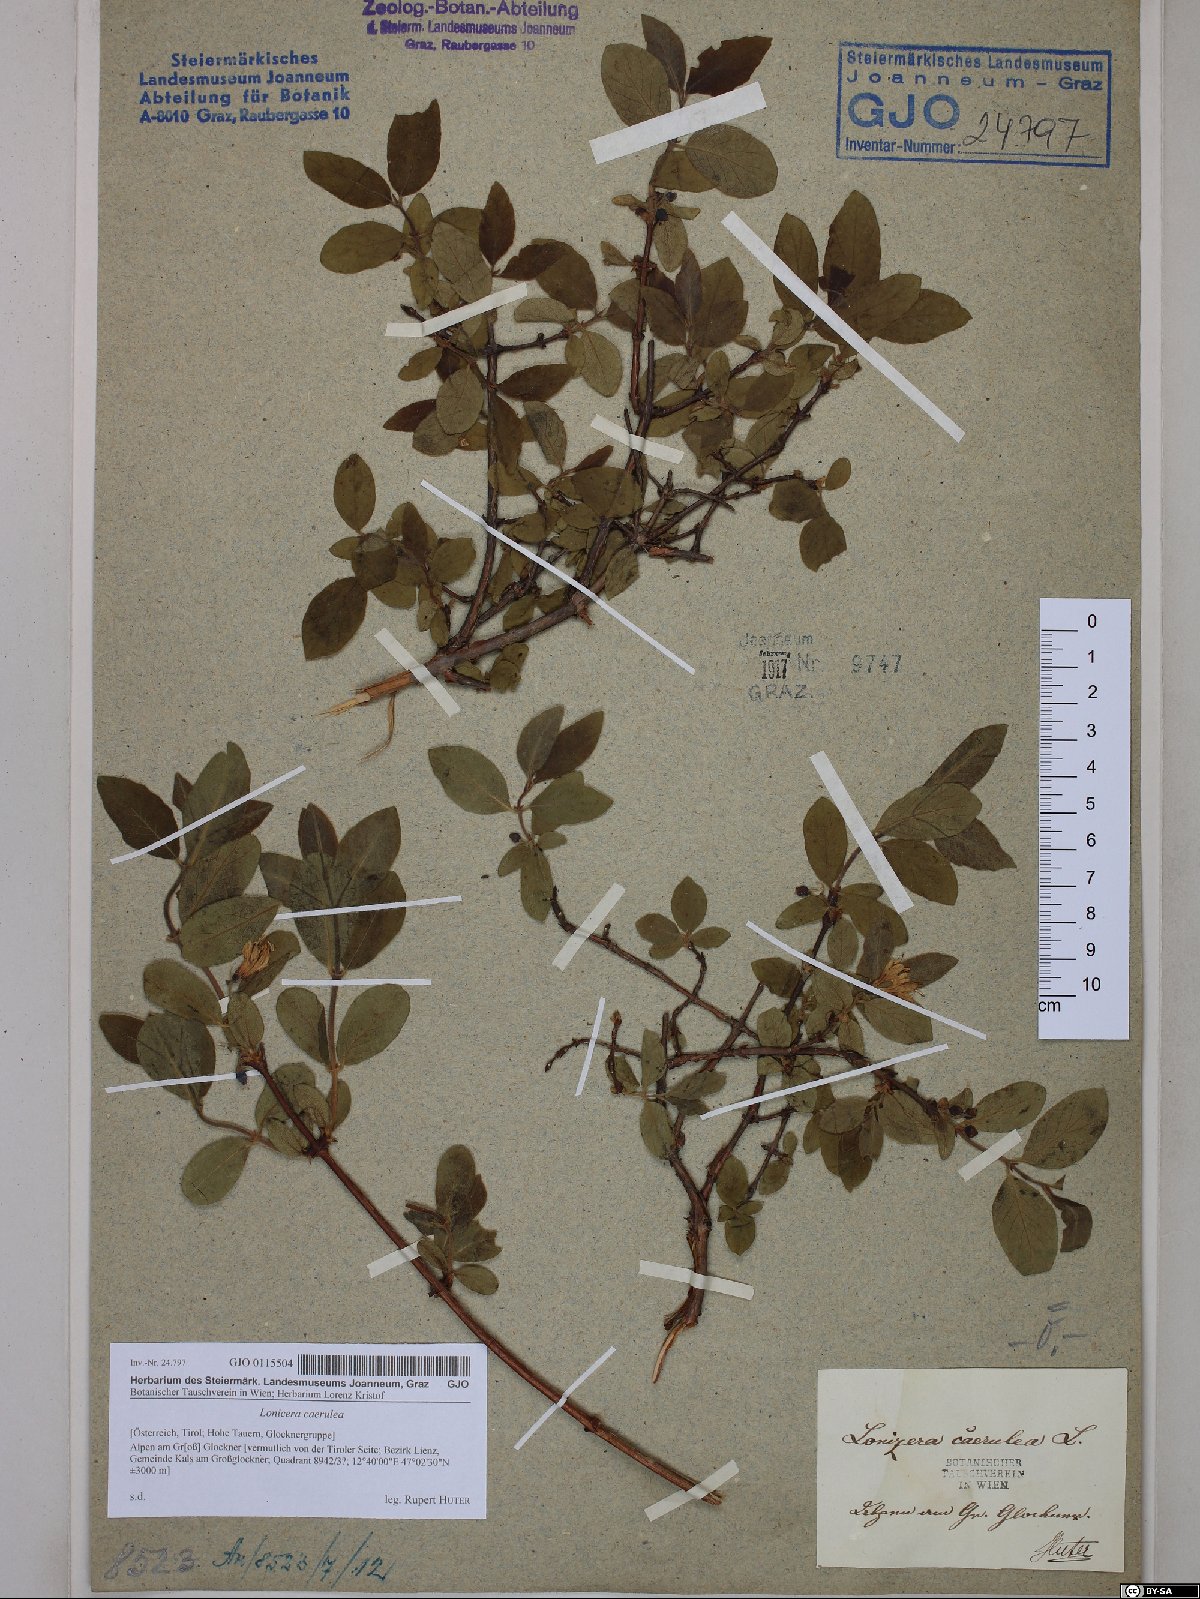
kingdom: Plantae
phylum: Tracheophyta
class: Magnoliopsida
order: Dipsacales
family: Caprifoliaceae
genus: Lonicera
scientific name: Lonicera caerulea
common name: Blue honeysuckle
